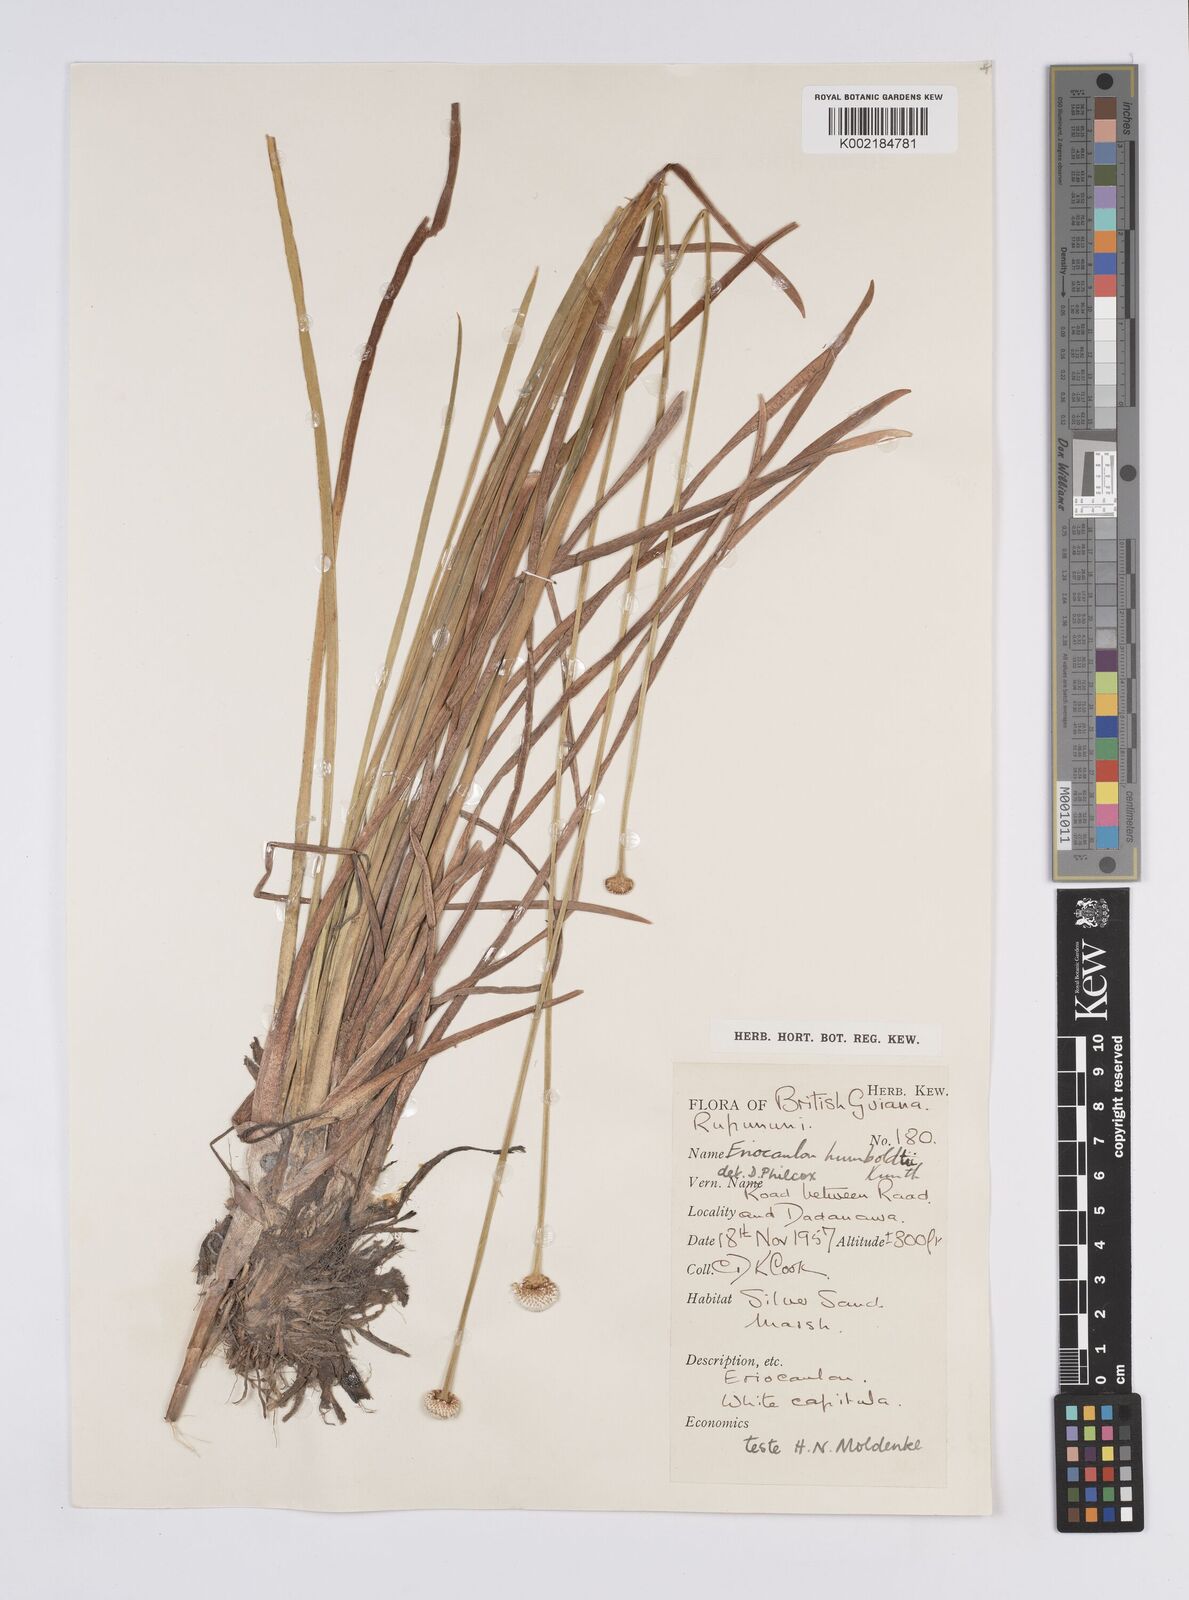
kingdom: Plantae
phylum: Tracheophyta
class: Liliopsida
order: Poales
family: Eriocaulaceae
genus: Eriocaulon
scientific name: Eriocaulon humboldtii
